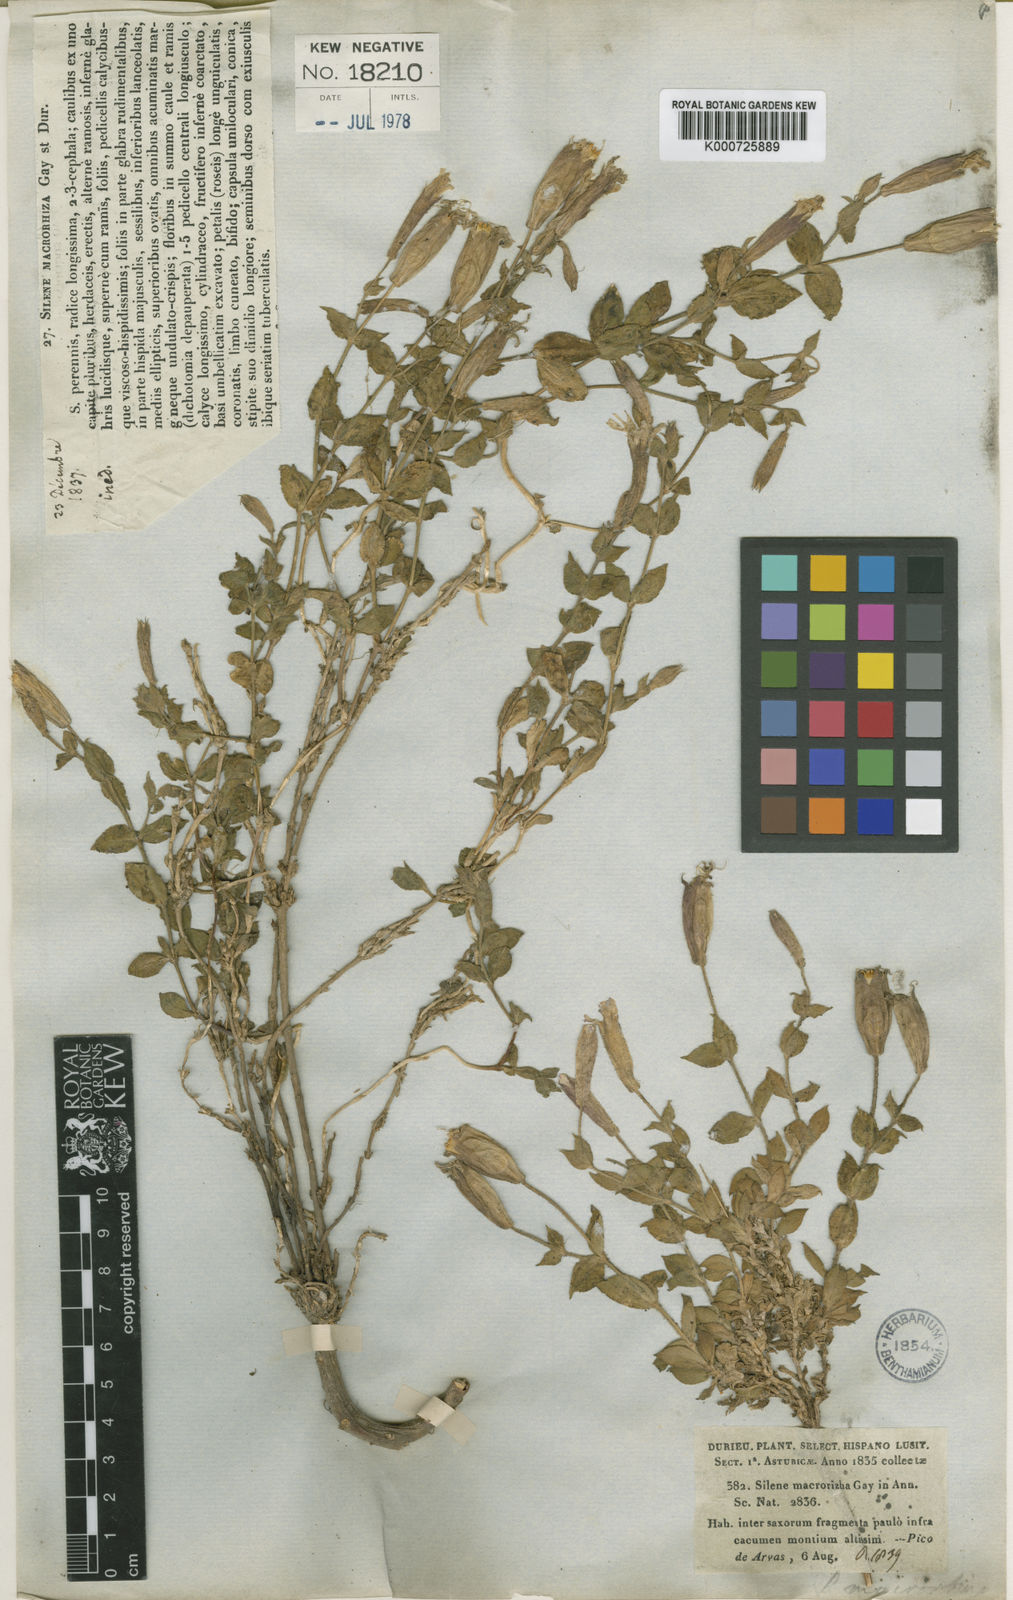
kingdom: Plantae
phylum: Tracheophyta
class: Magnoliopsida
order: Caryophyllales
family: Caryophyllaceae
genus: Silene
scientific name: Silene
